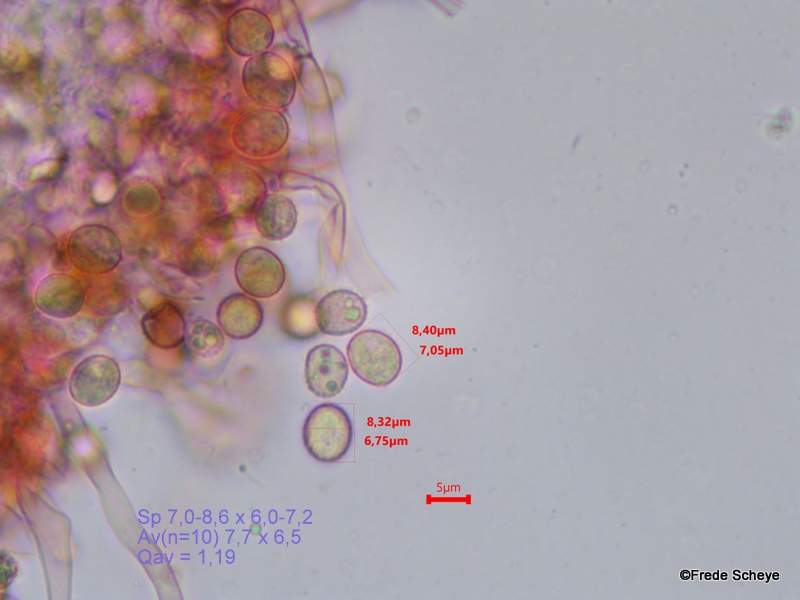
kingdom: Fungi
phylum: Basidiomycota
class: Agaricomycetes
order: Agaricales
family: Crepidotaceae
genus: Crepidotus
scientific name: Crepidotus cesatii
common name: almindelig muslingesvamp
